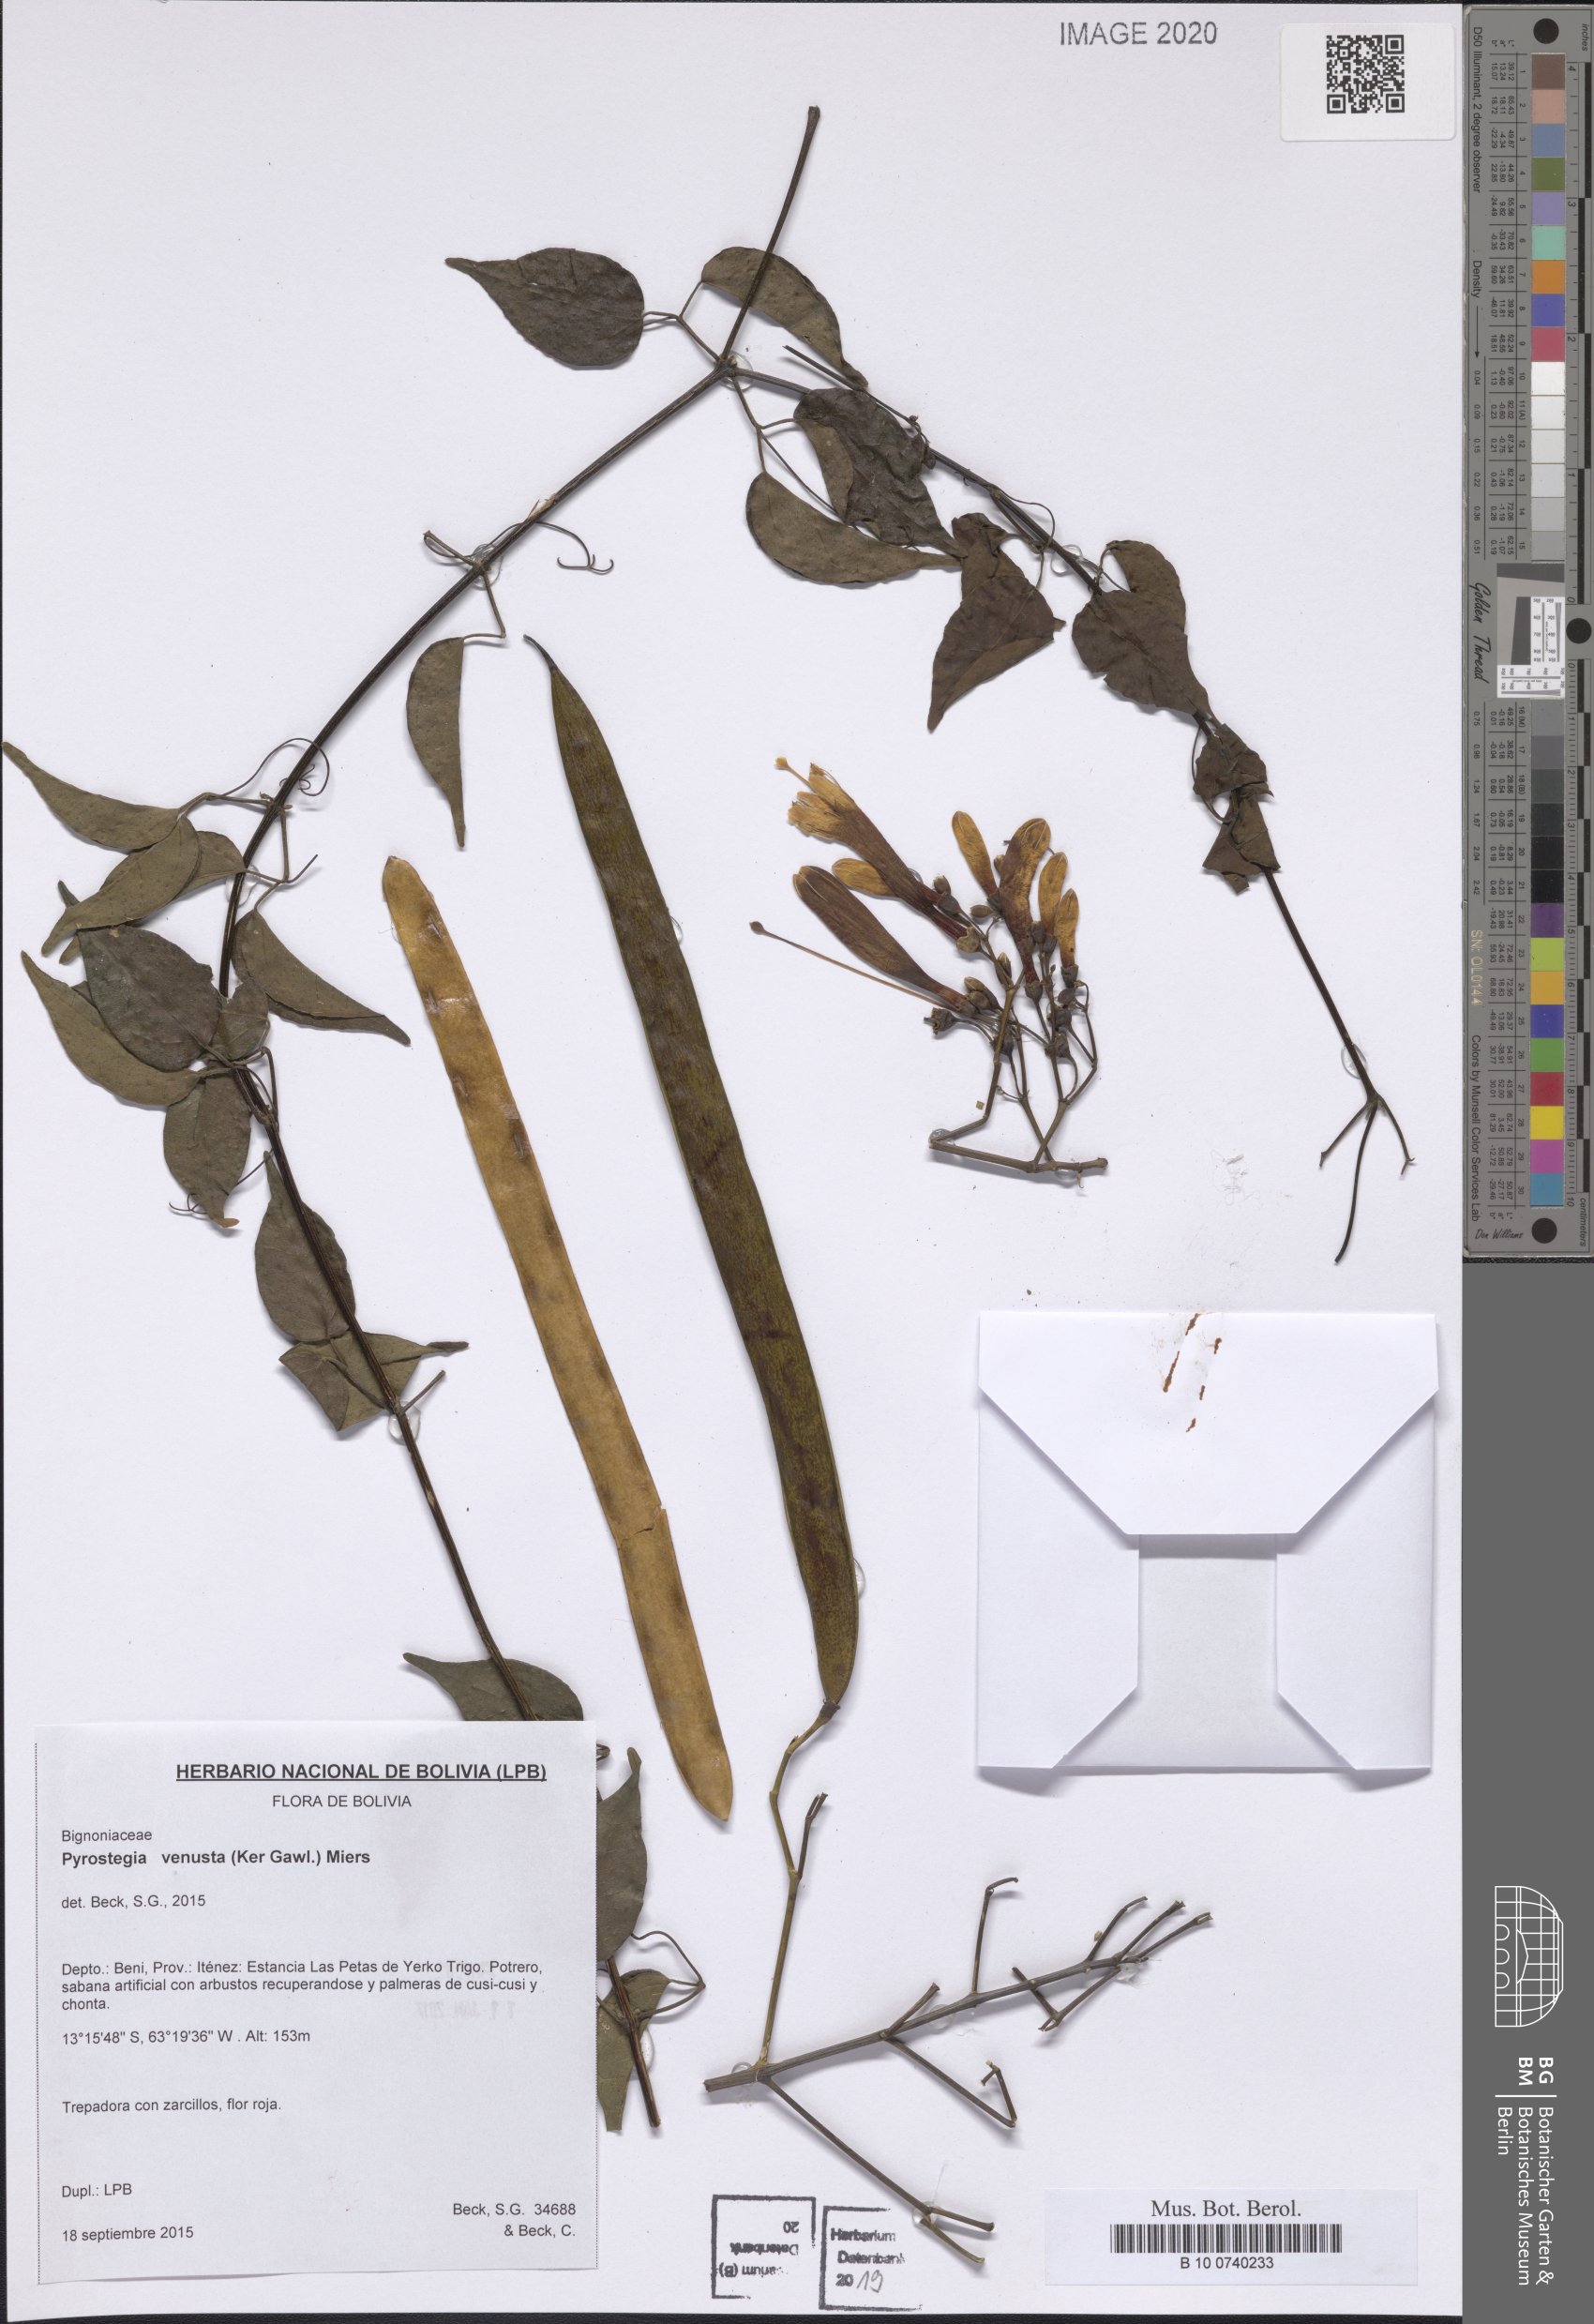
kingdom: Plantae
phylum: Tracheophyta
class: Magnoliopsida
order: Lamiales
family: Bignoniaceae
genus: Pyrostegia
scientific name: Pyrostegia venusta
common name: Flamevine
